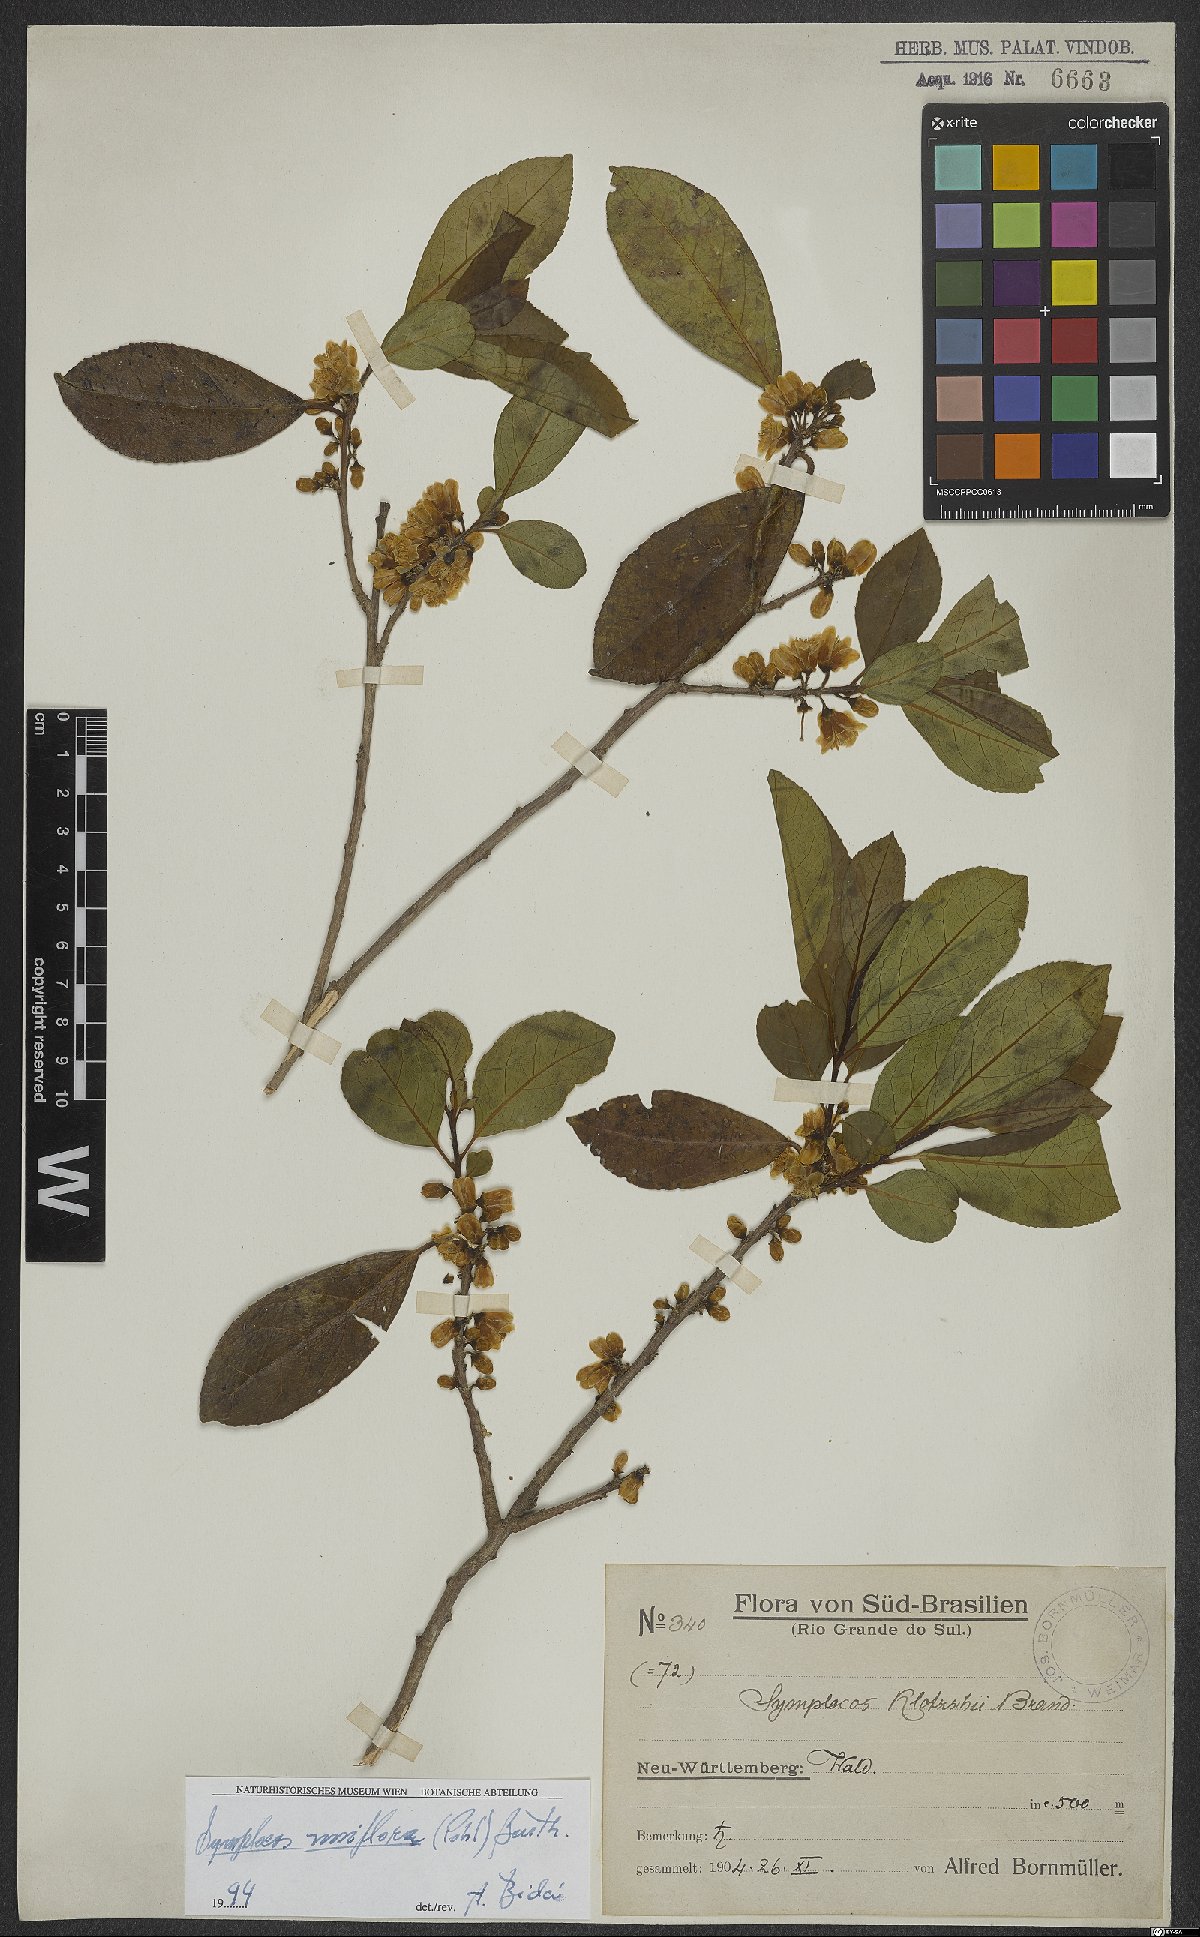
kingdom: Plantae
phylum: Tracheophyta
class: Magnoliopsida
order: Ericales
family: Symplocaceae
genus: Symplocos
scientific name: Symplocos uniflora
